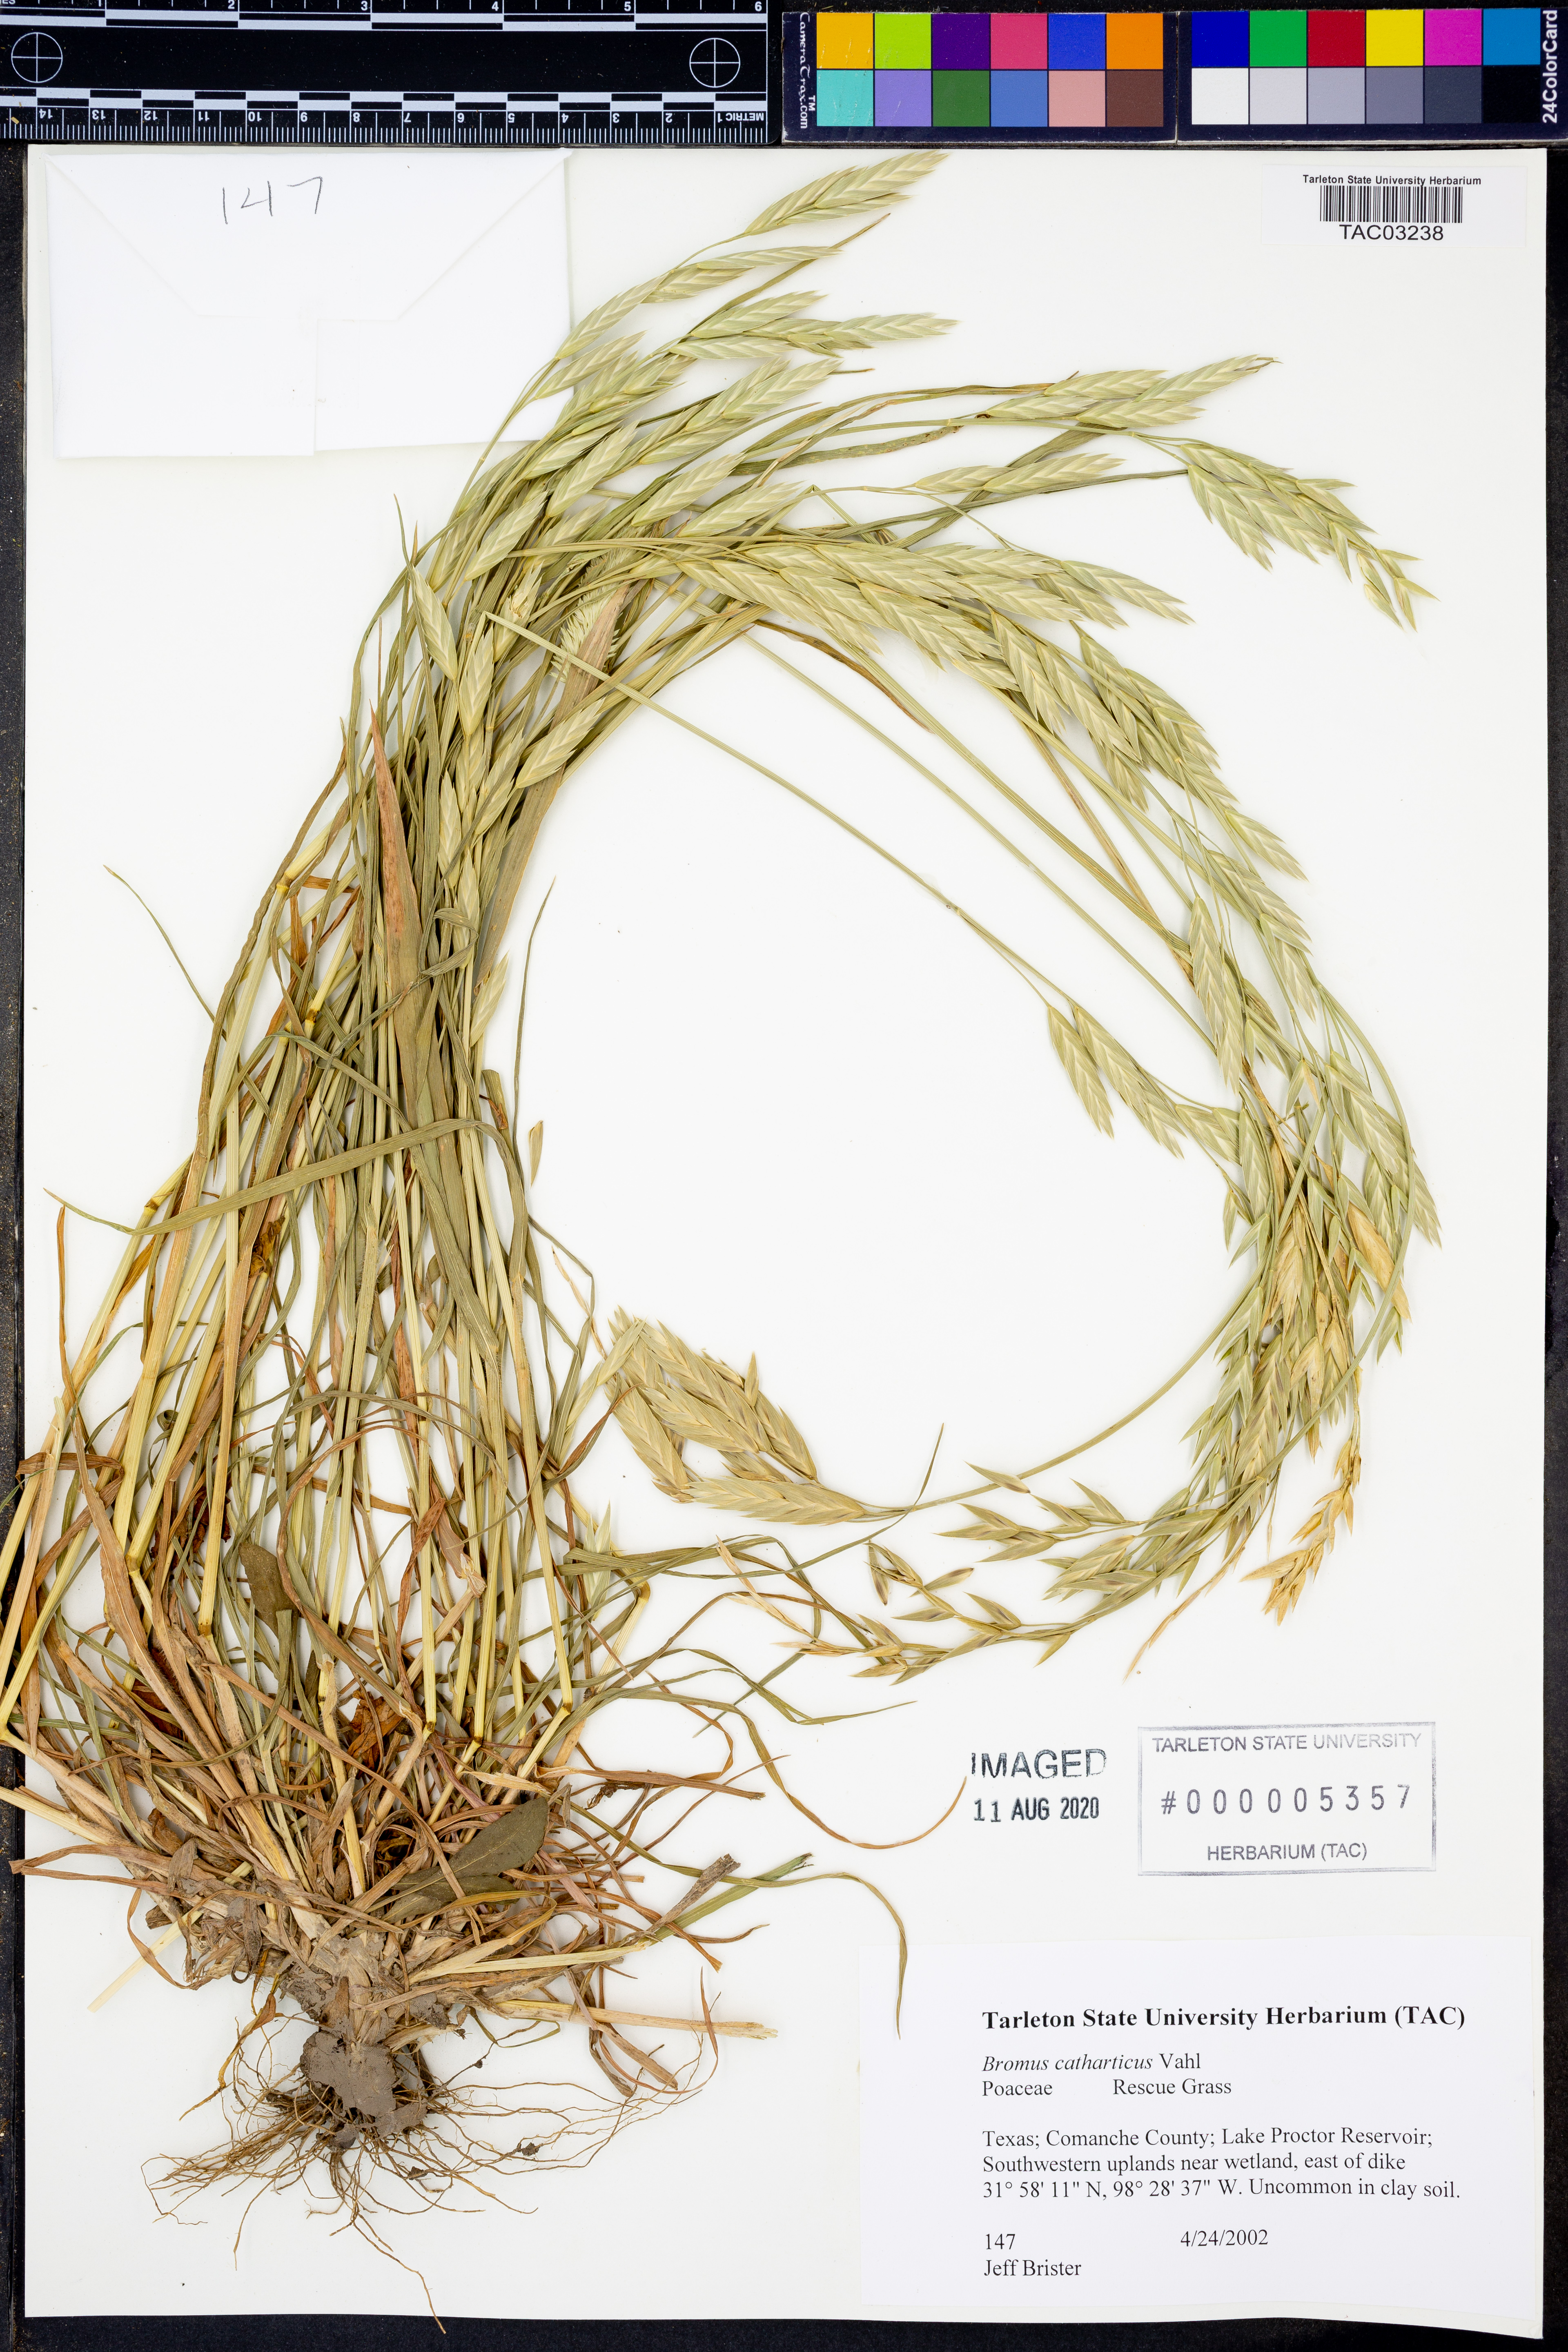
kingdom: Plantae
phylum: Tracheophyta
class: Liliopsida
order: Poales
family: Poaceae
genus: Bromus
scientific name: Bromus catharticus
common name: Rescuegrass
